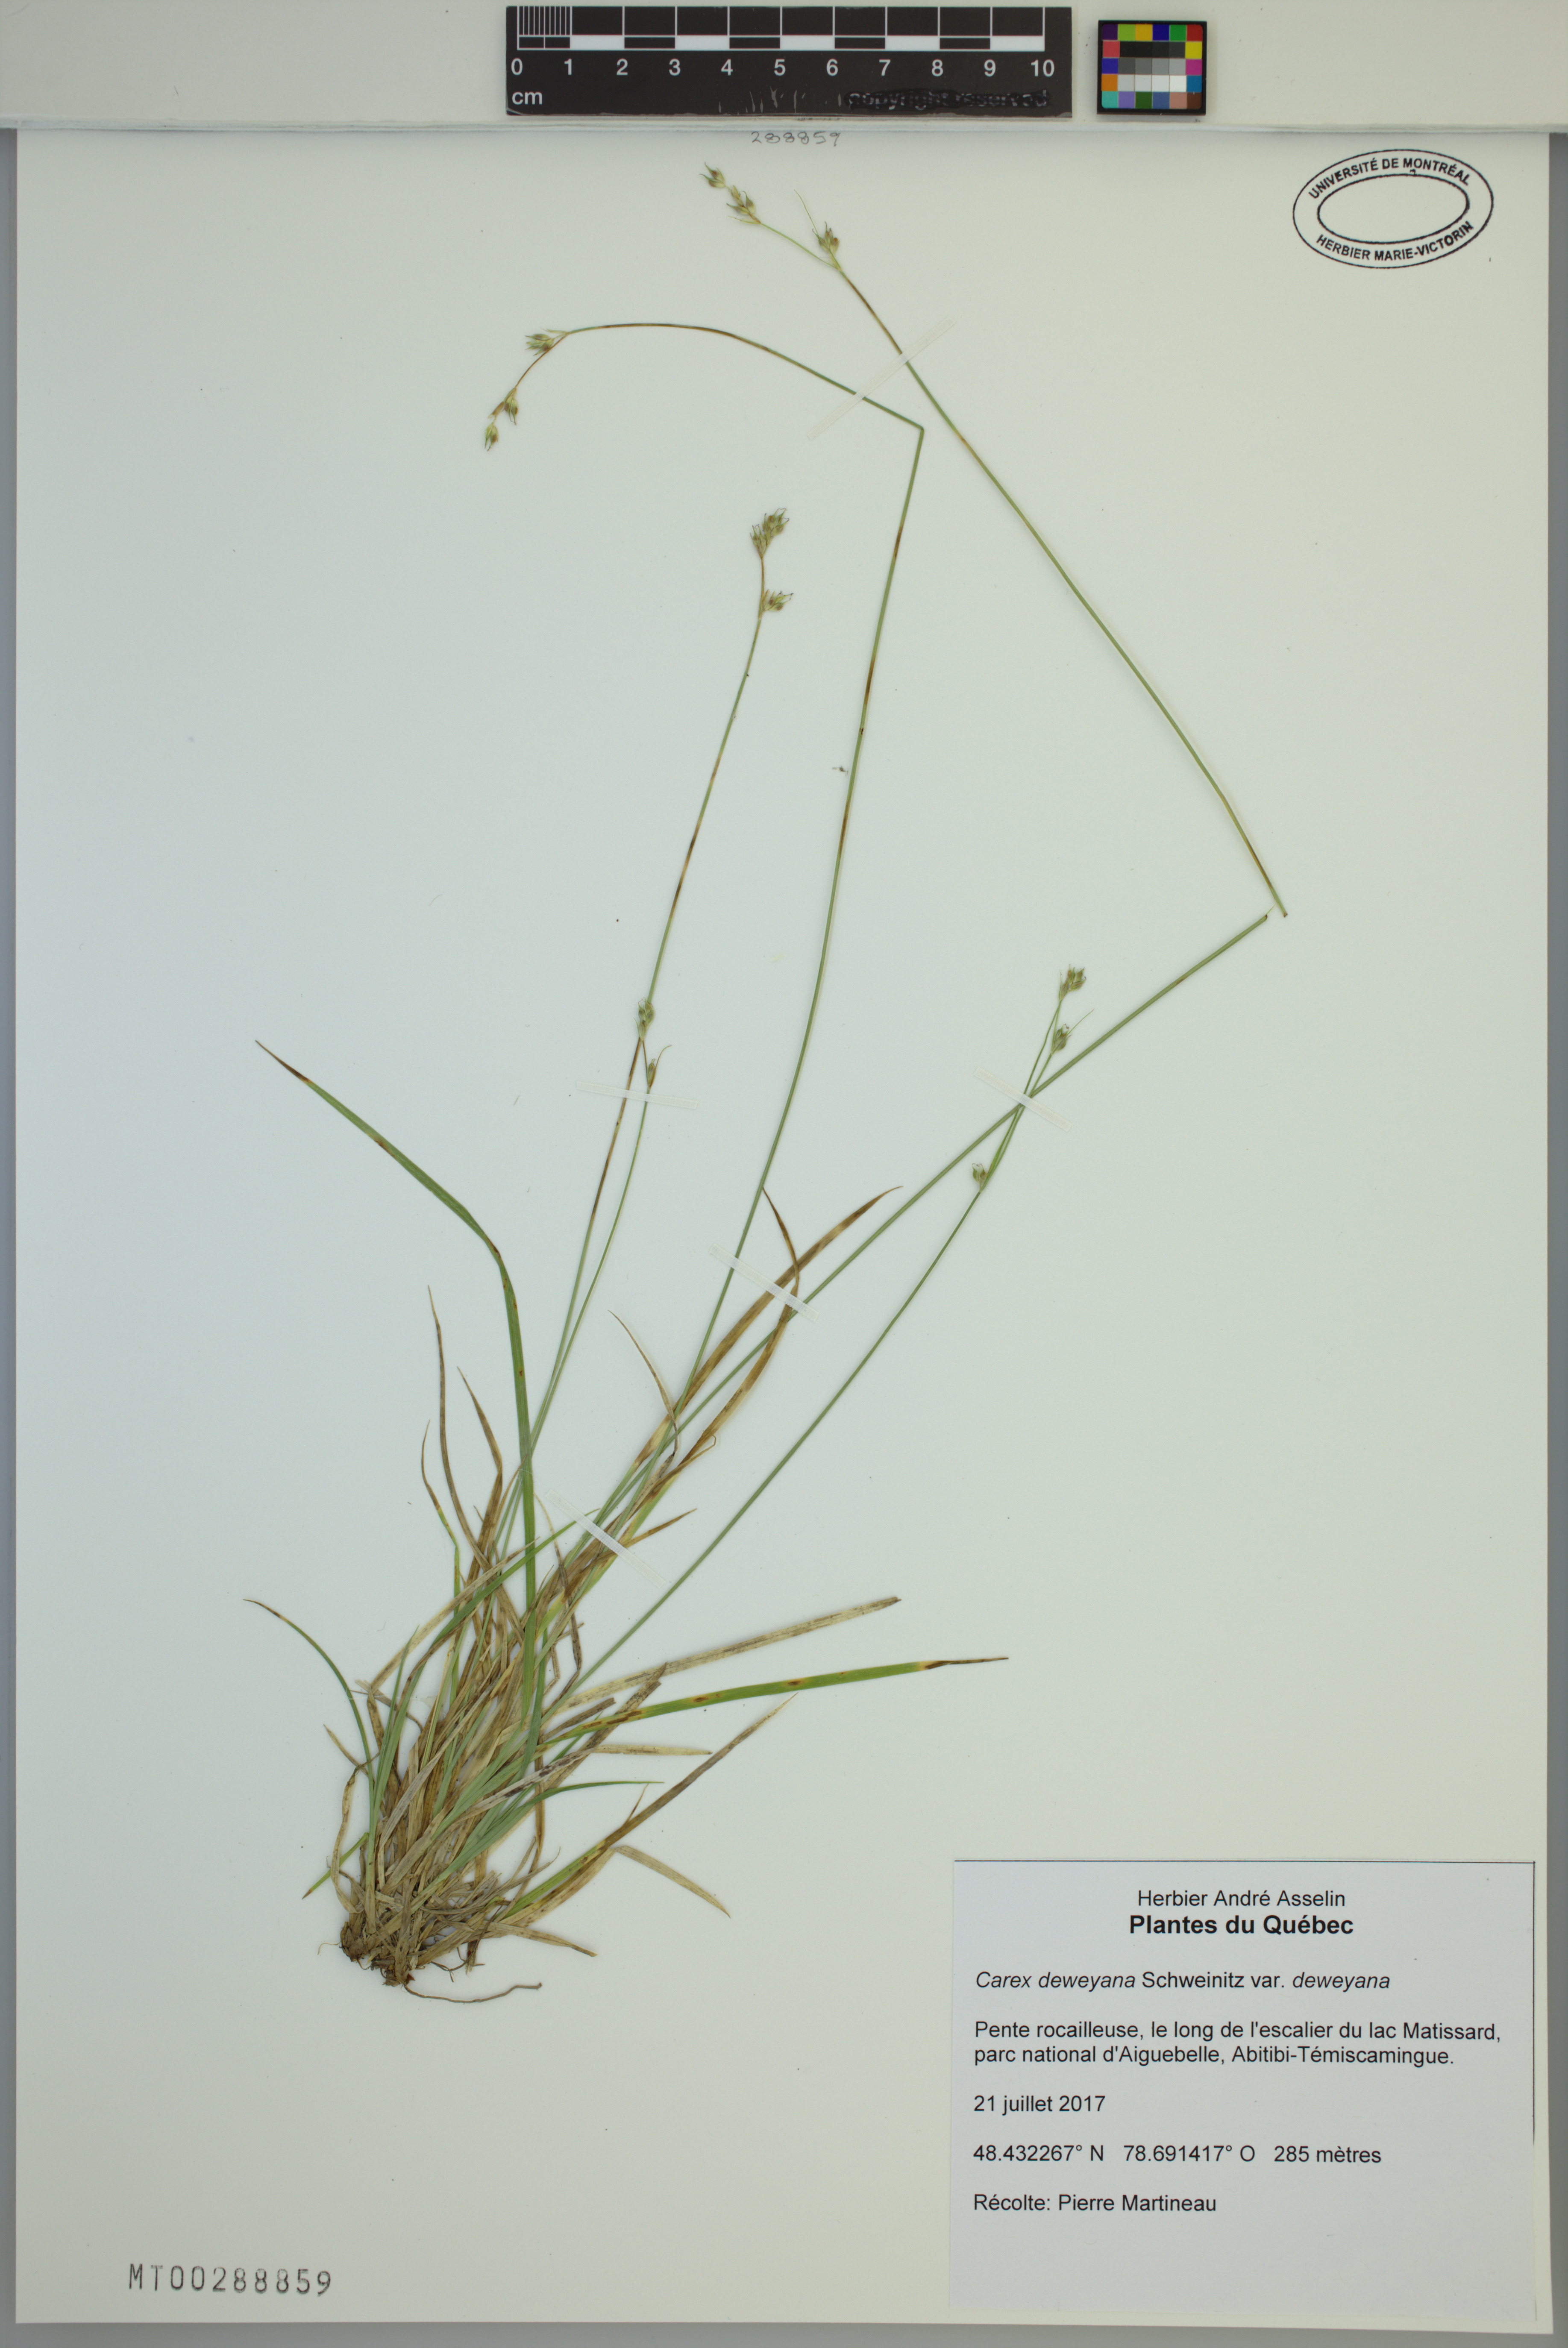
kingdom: Plantae
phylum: Tracheophyta
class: Liliopsida
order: Poales
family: Cyperaceae
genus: Carex
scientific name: Carex deweyana
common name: Dewey's sedge
